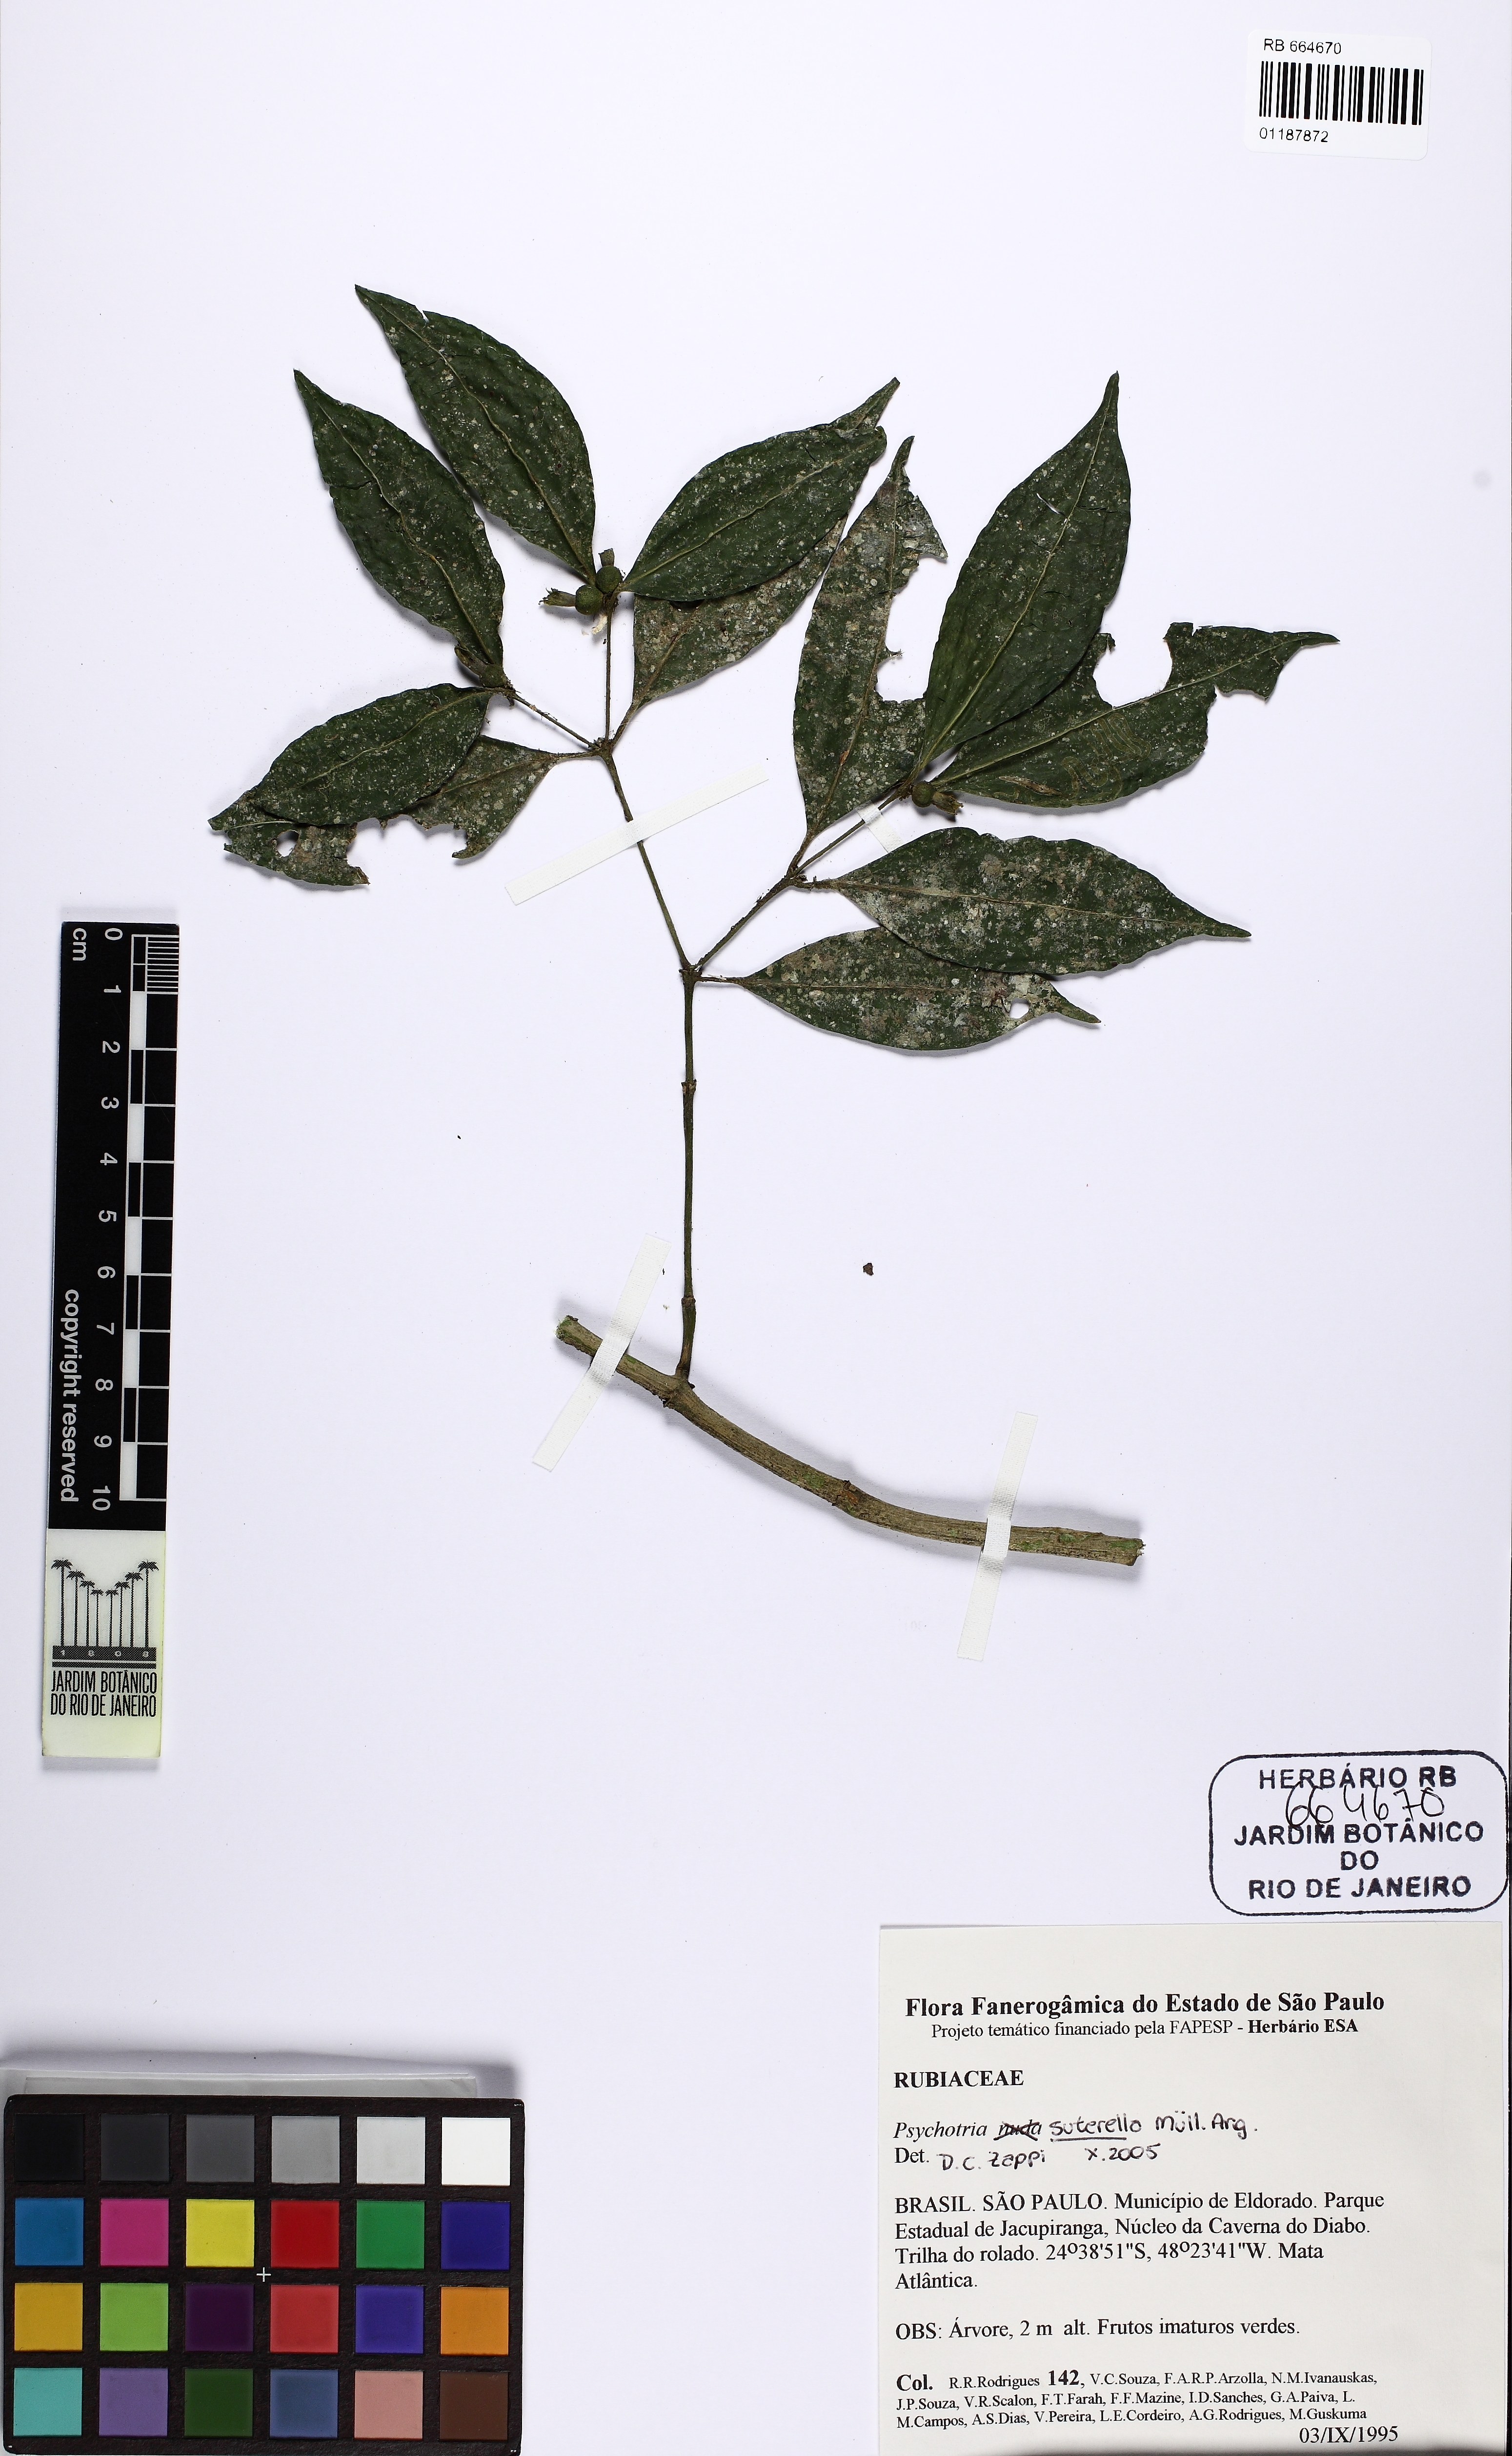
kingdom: Plantae
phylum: Tracheophyta
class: Magnoliopsida
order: Gentianales
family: Rubiaceae
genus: Psychotria
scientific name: Psychotria suterella
